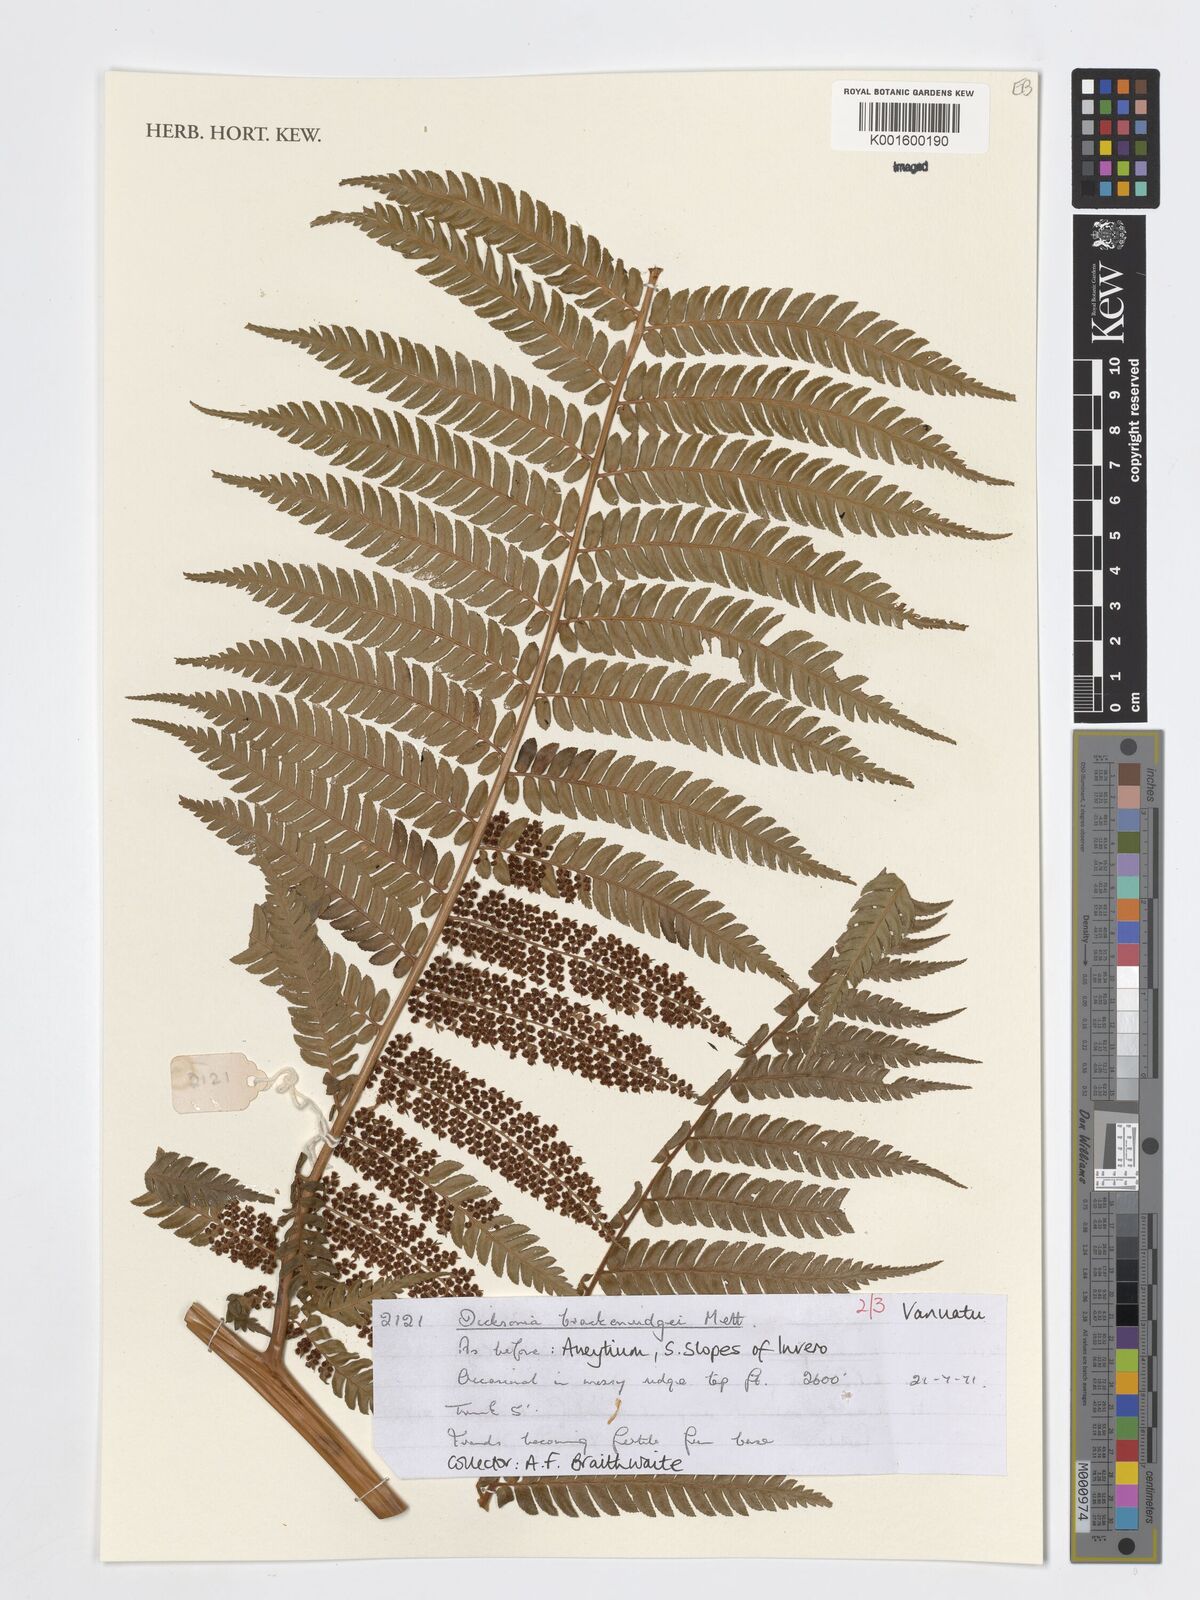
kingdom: Plantae
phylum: Tracheophyta
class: Polypodiopsida
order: Cyatheales
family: Dicksoniaceae
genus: Dicksonia
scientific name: Dicksonia brackenridgei
